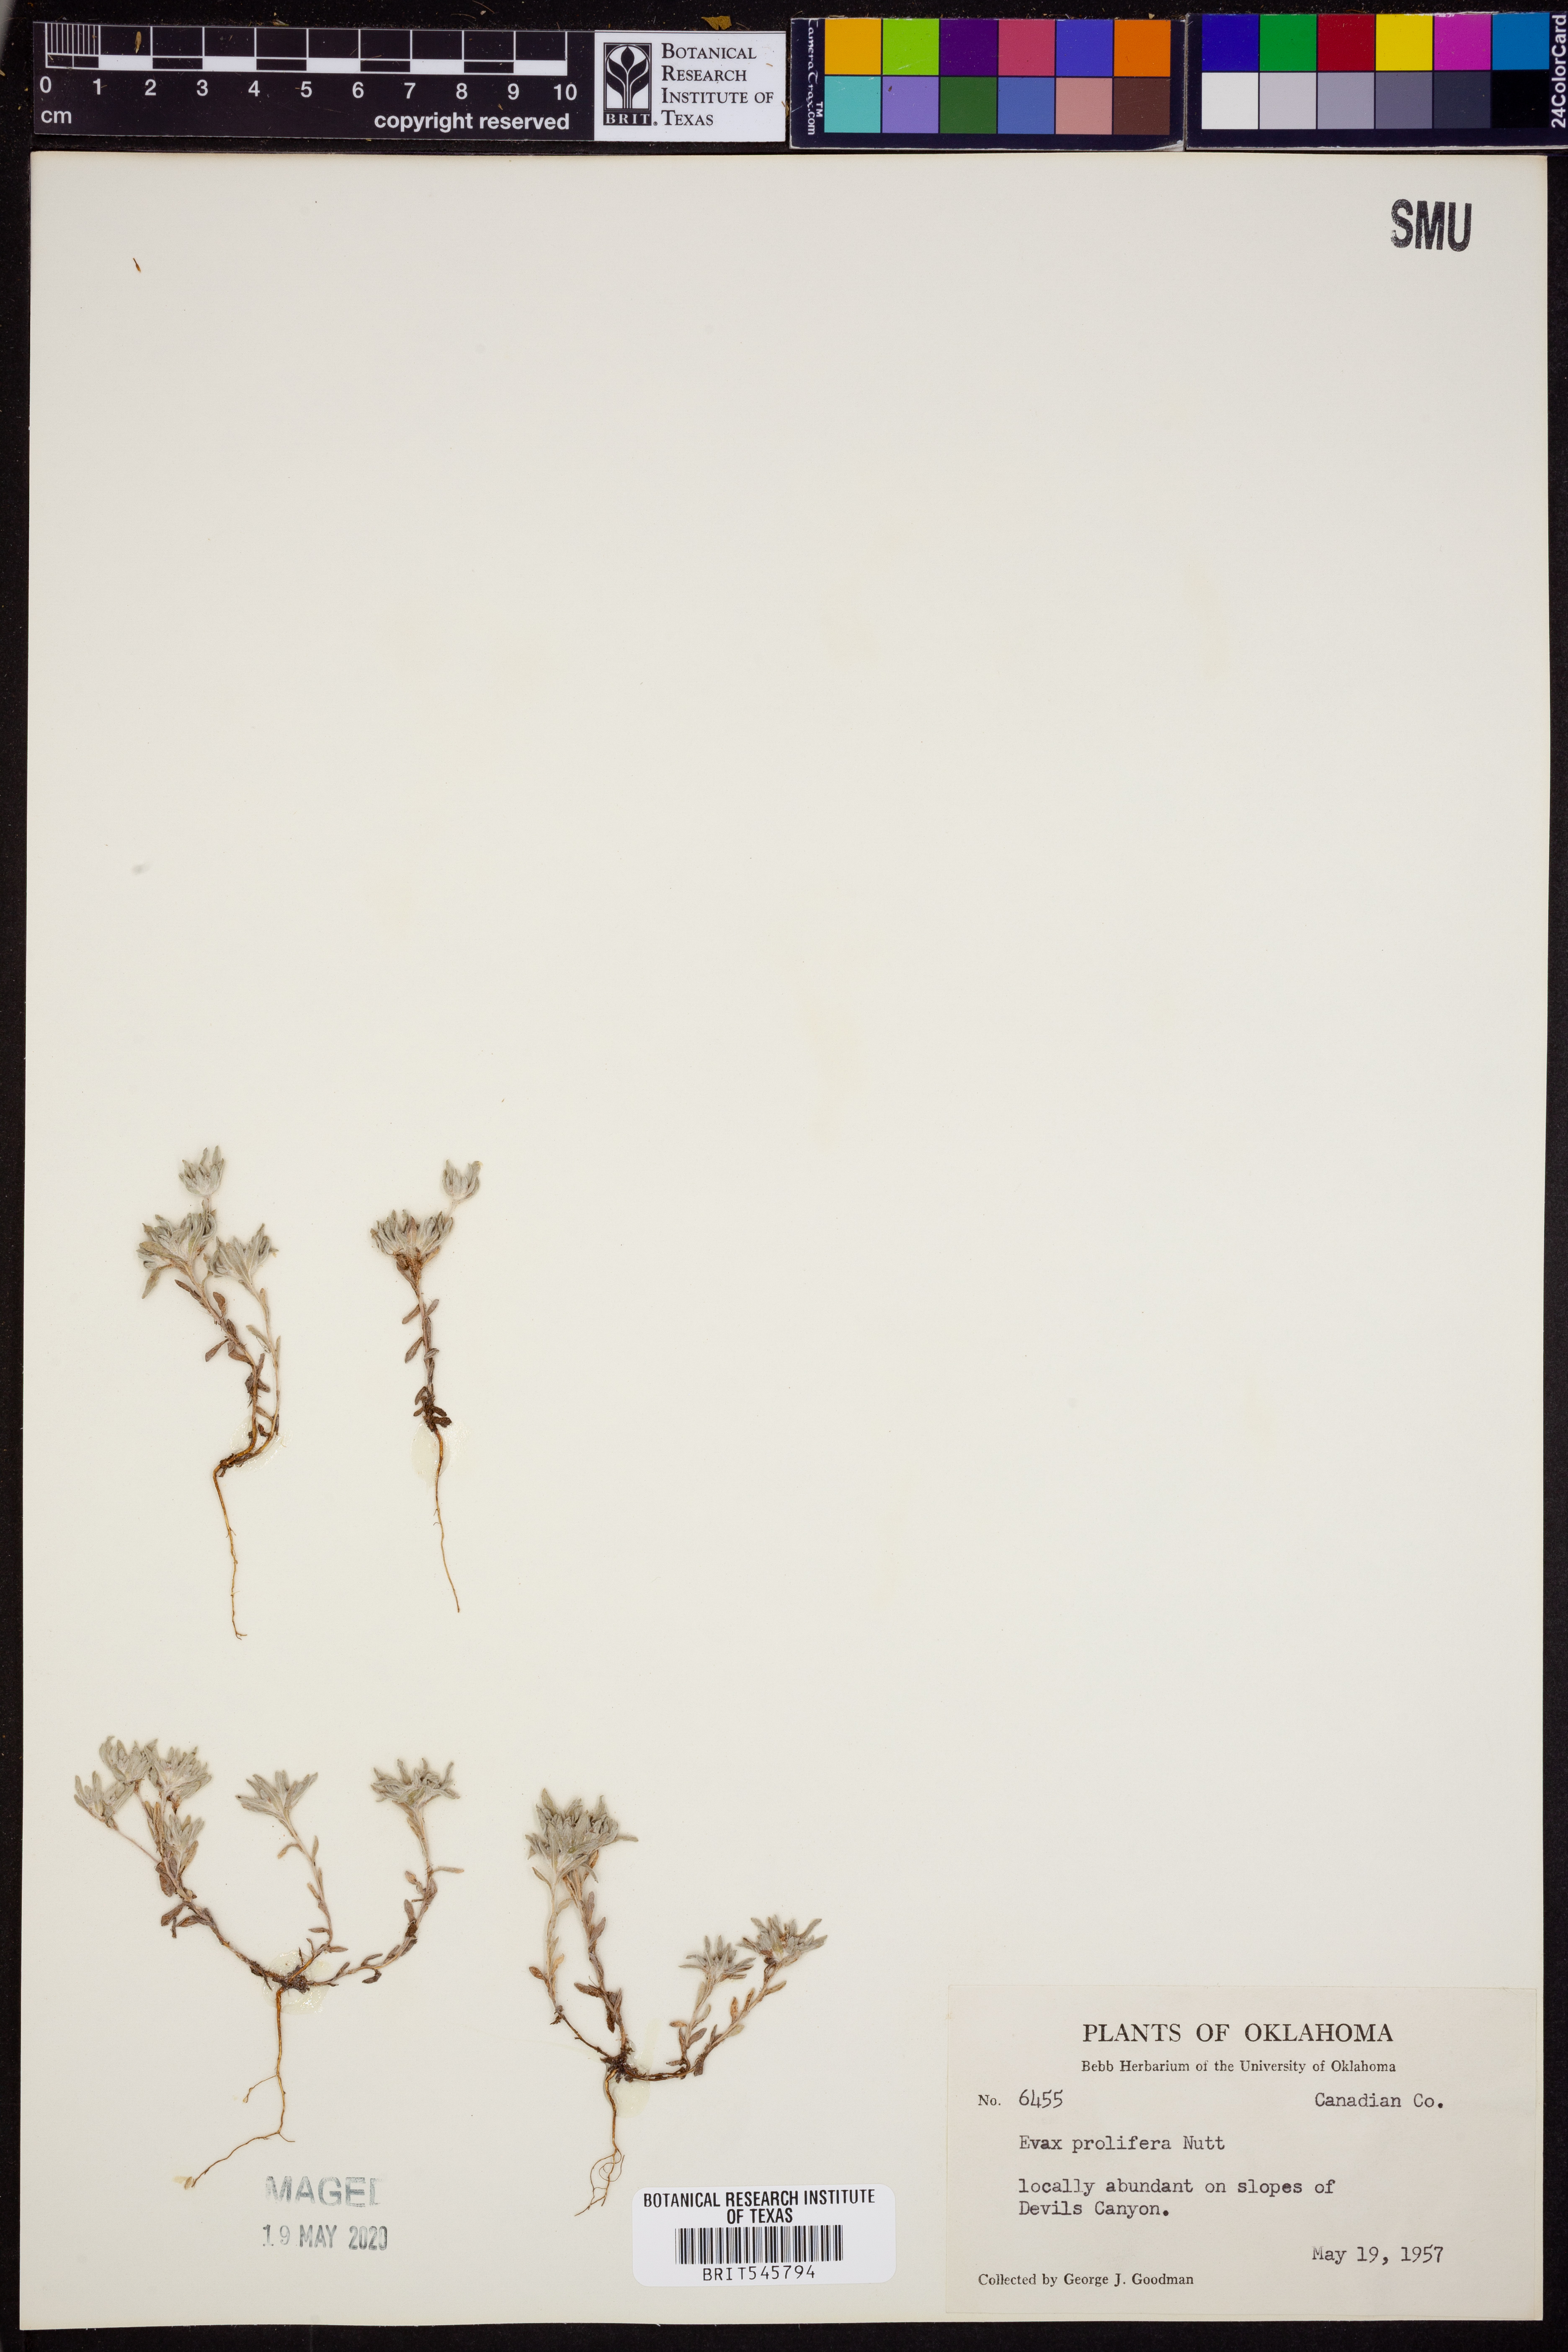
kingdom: Plantae
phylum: Tracheophyta
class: Magnoliopsida
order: Asterales
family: Asteraceae
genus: Diaperia
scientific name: Diaperia prolifera
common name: Big-head rabbit-tobacco
